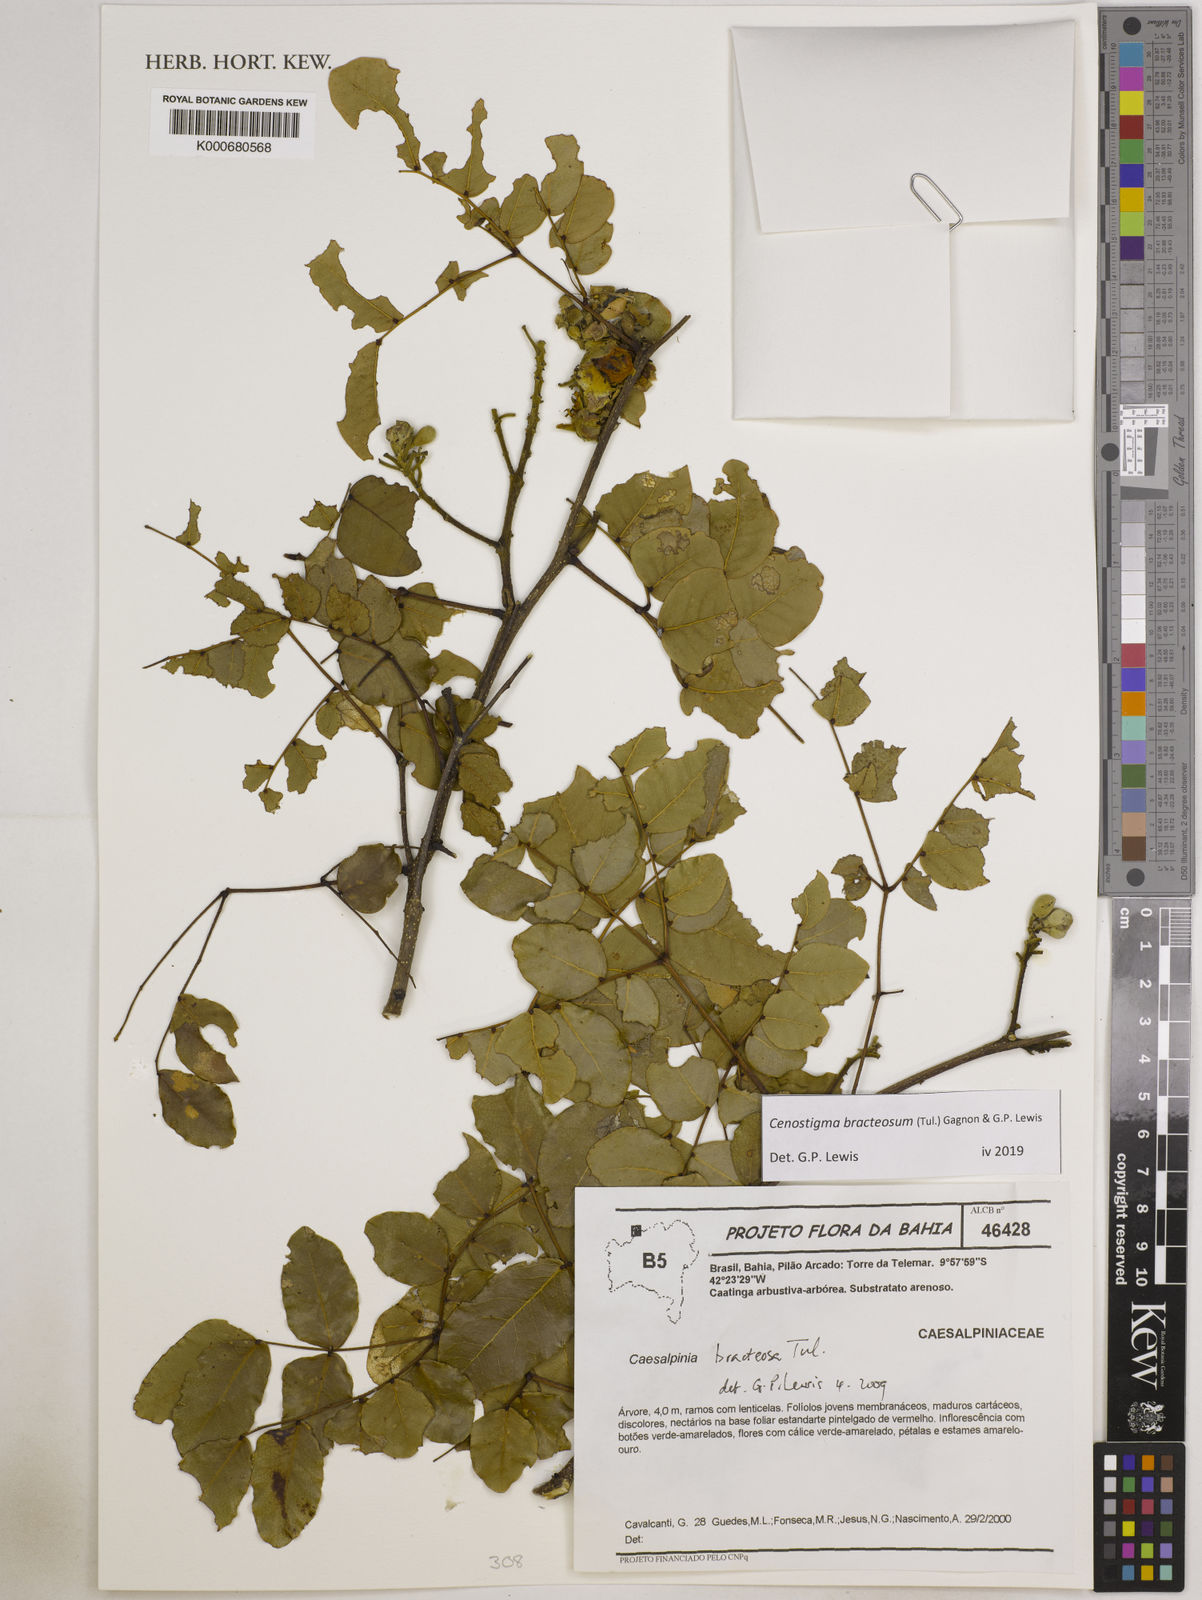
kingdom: Plantae
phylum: Tracheophyta
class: Magnoliopsida
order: Fabales
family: Fabaceae
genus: Cenostigma
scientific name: Cenostigma bracteosum
